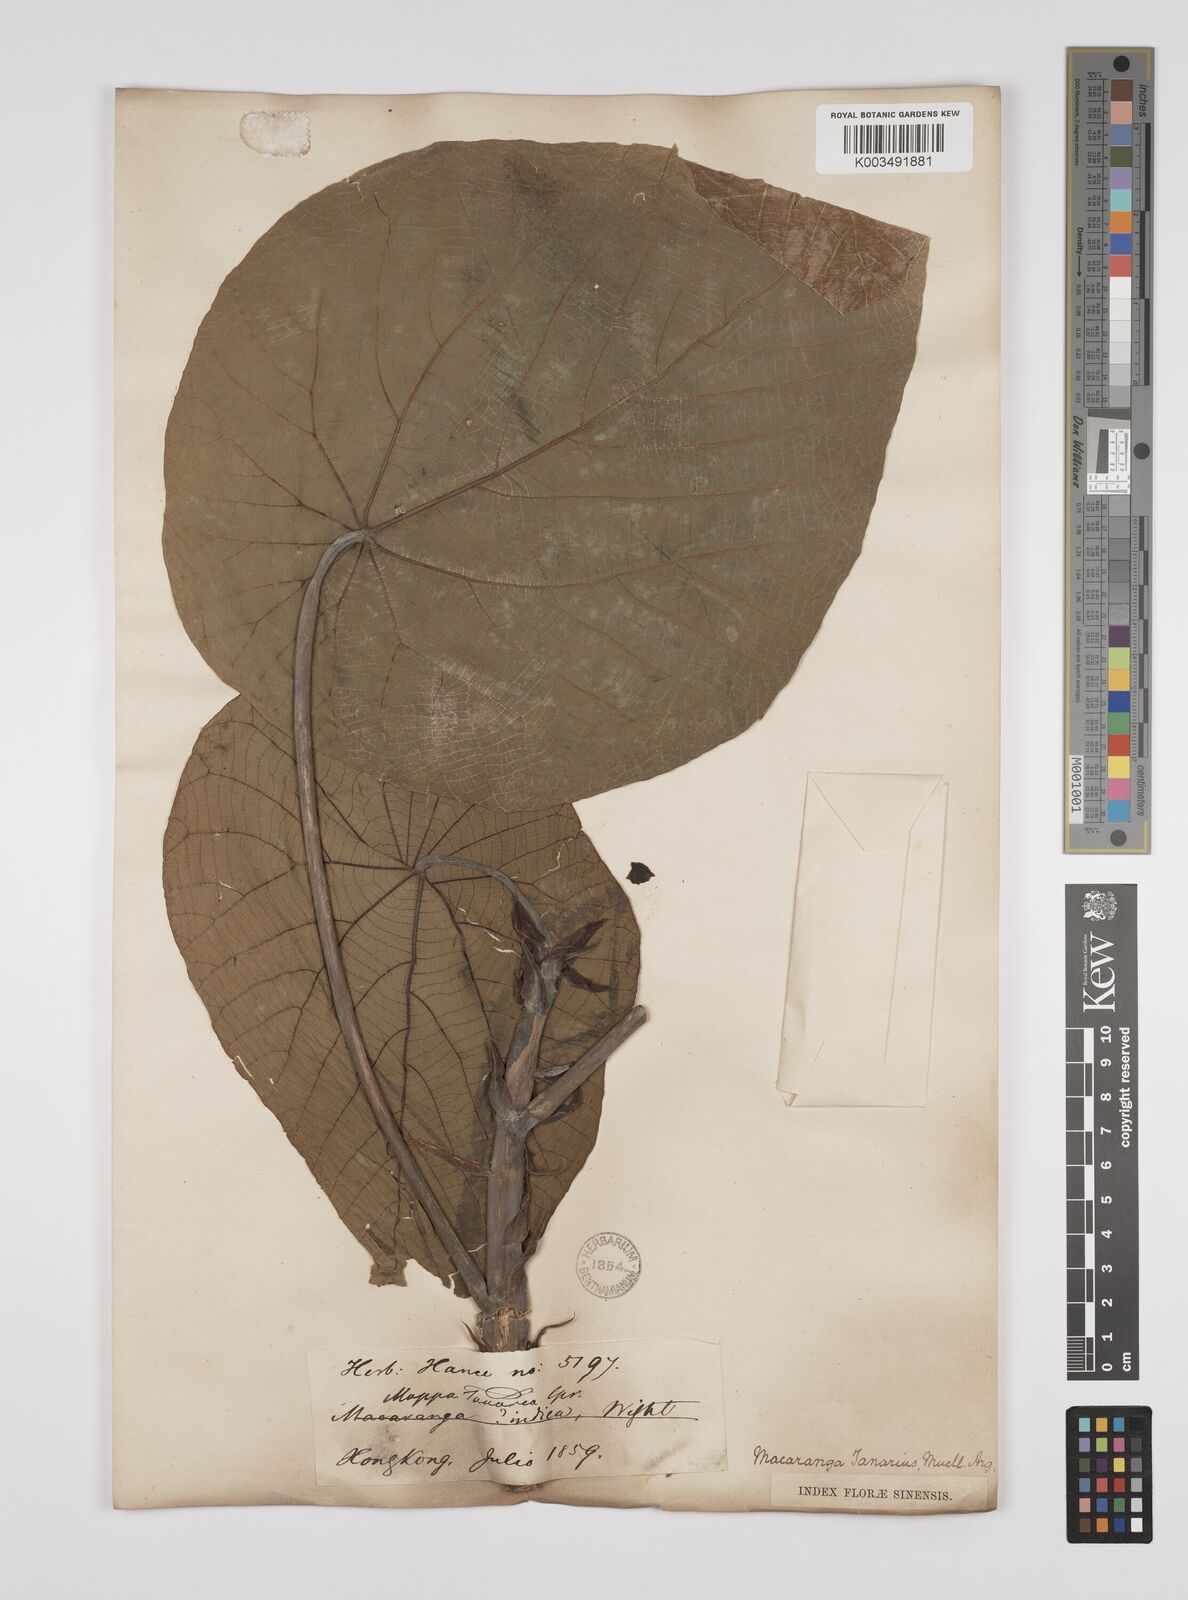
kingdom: Plantae
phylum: Tracheophyta
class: Magnoliopsida
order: Malpighiales
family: Euphorbiaceae
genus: Macaranga
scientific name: Macaranga tanarius
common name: Parasol leaf tree
